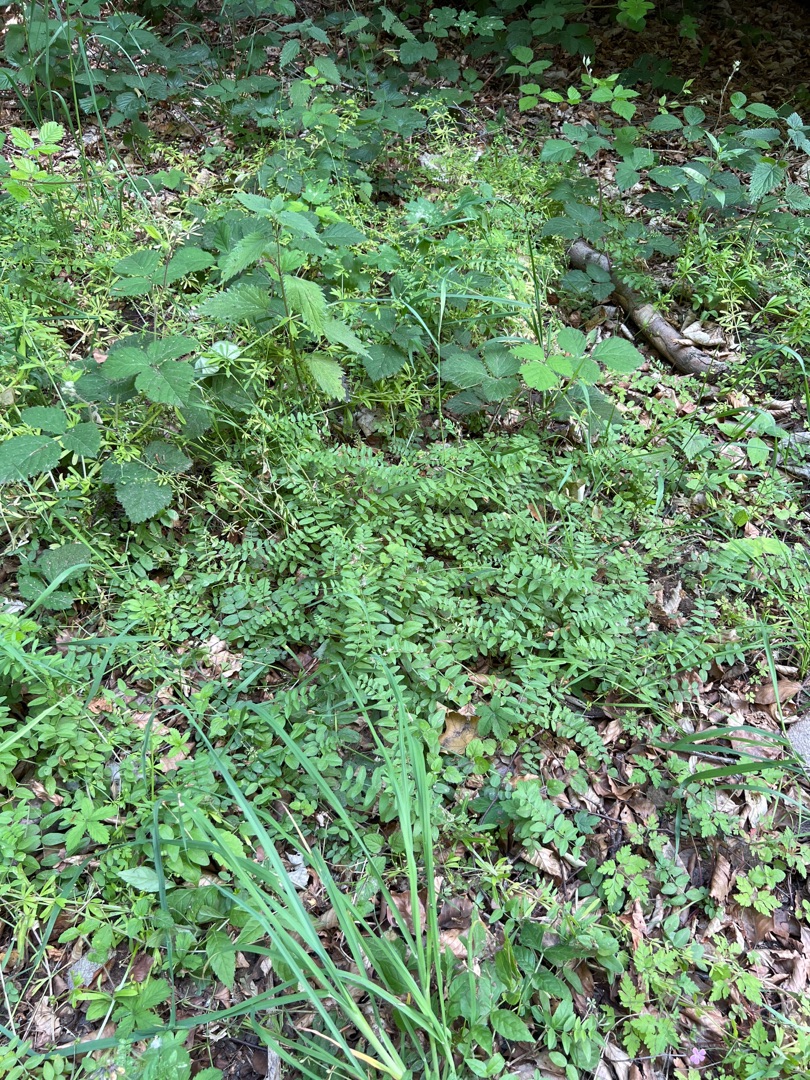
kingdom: Plantae
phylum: Tracheophyta
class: Magnoliopsida
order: Fabales
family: Fabaceae
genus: Vicia
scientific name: Vicia sepium
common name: Gærde-vikke
